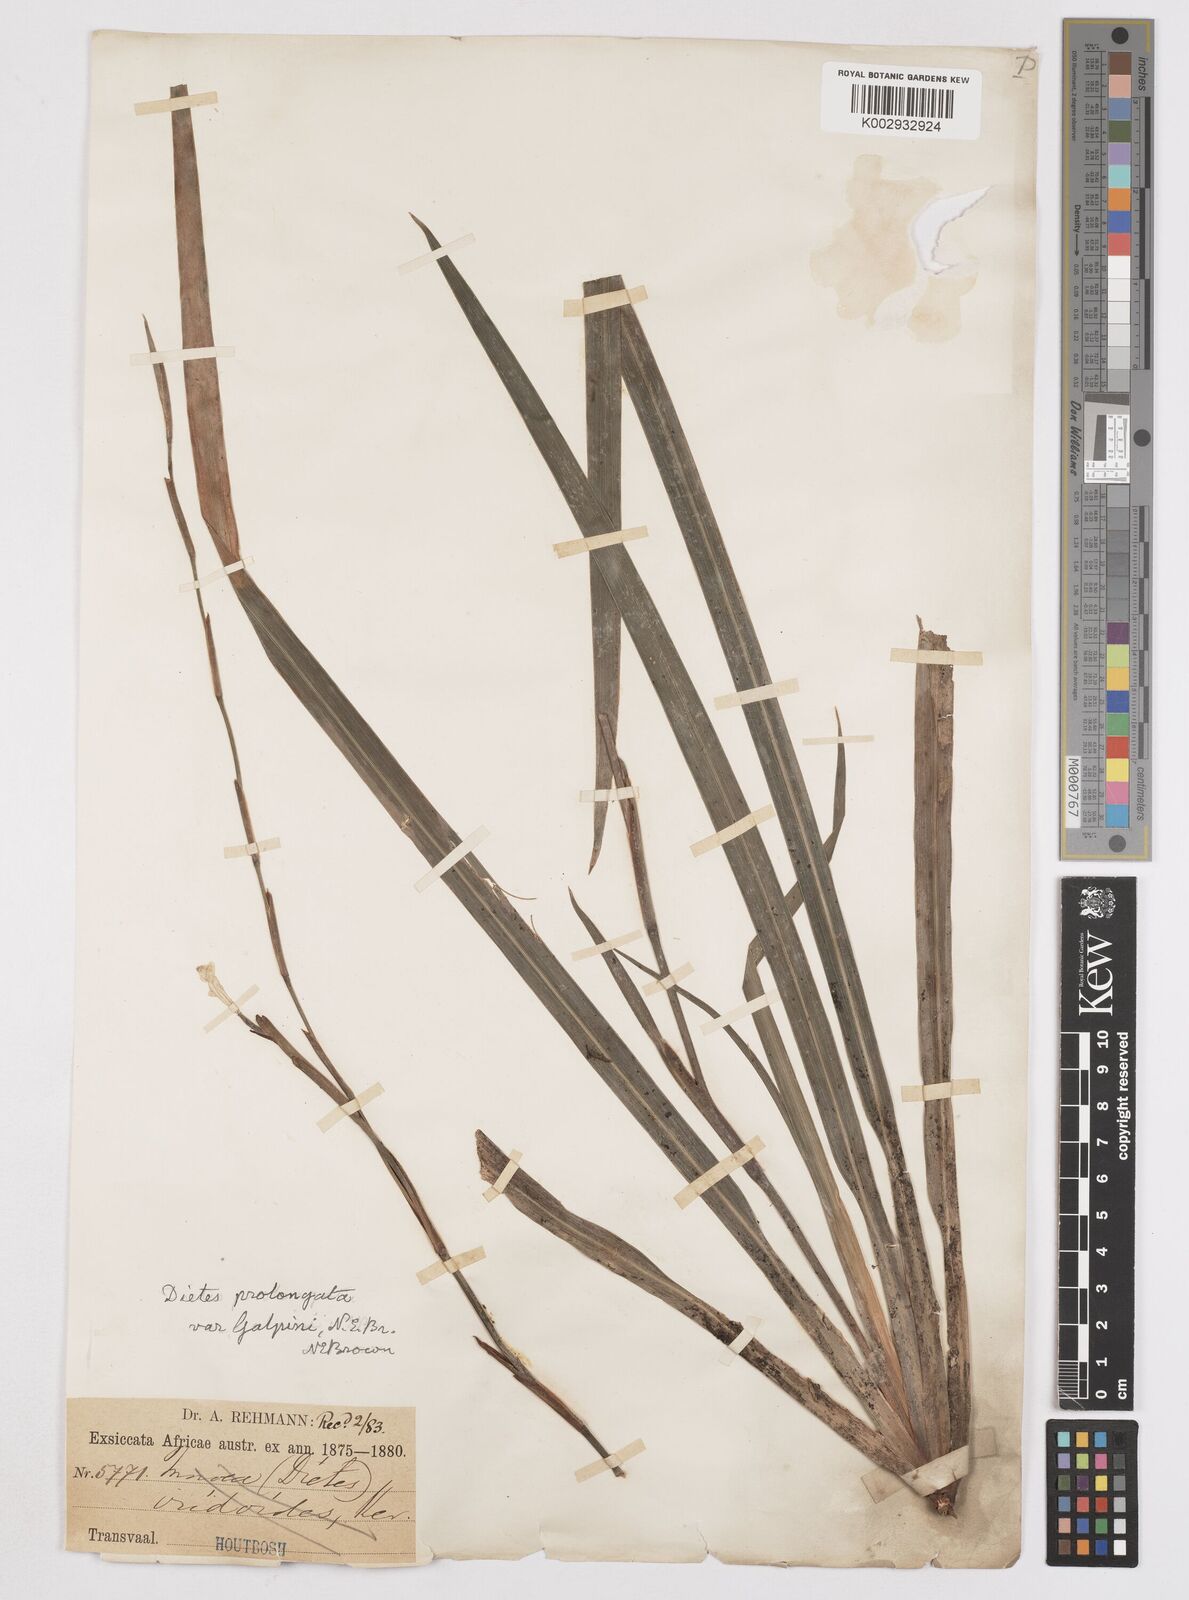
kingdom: Plantae
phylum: Tracheophyta
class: Liliopsida
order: Asparagales
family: Iridaceae
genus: Dietes
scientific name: Dietes iridioides
